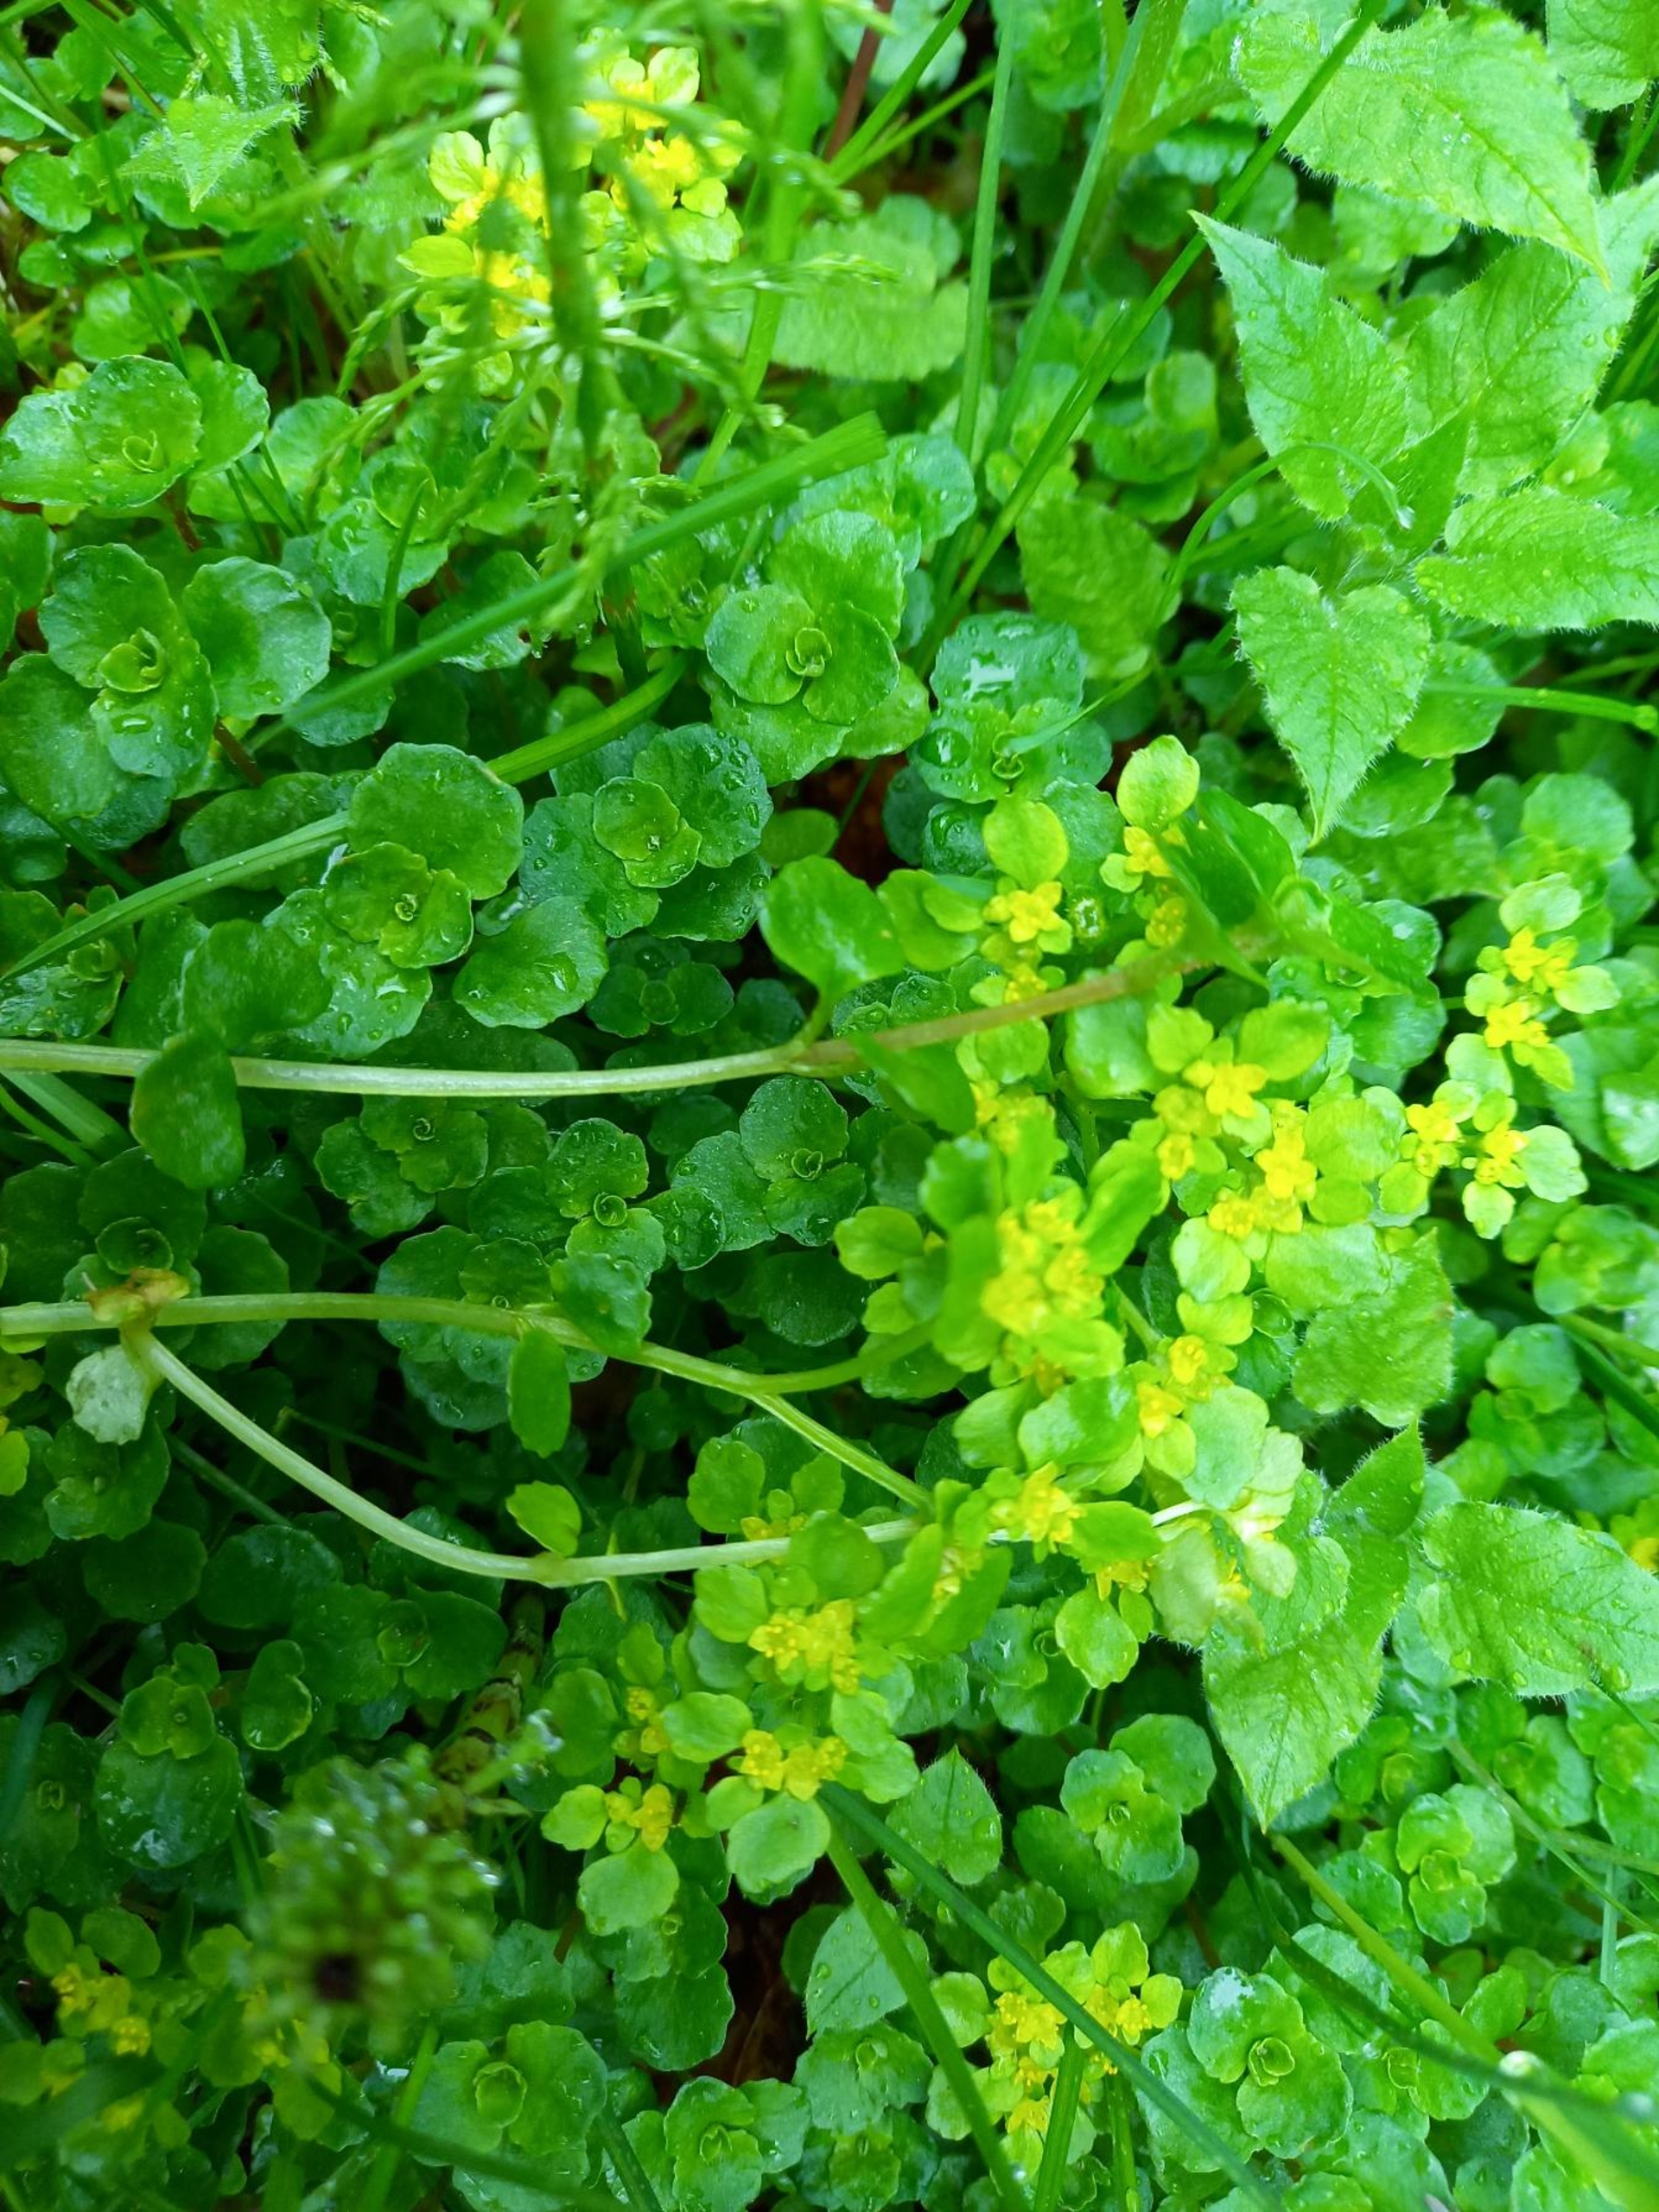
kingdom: Plantae
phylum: Tracheophyta
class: Magnoliopsida
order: Saxifragales
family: Saxifragaceae
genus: Chrysosplenium
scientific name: Chrysosplenium oppositifolium
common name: Småbladet milturt
